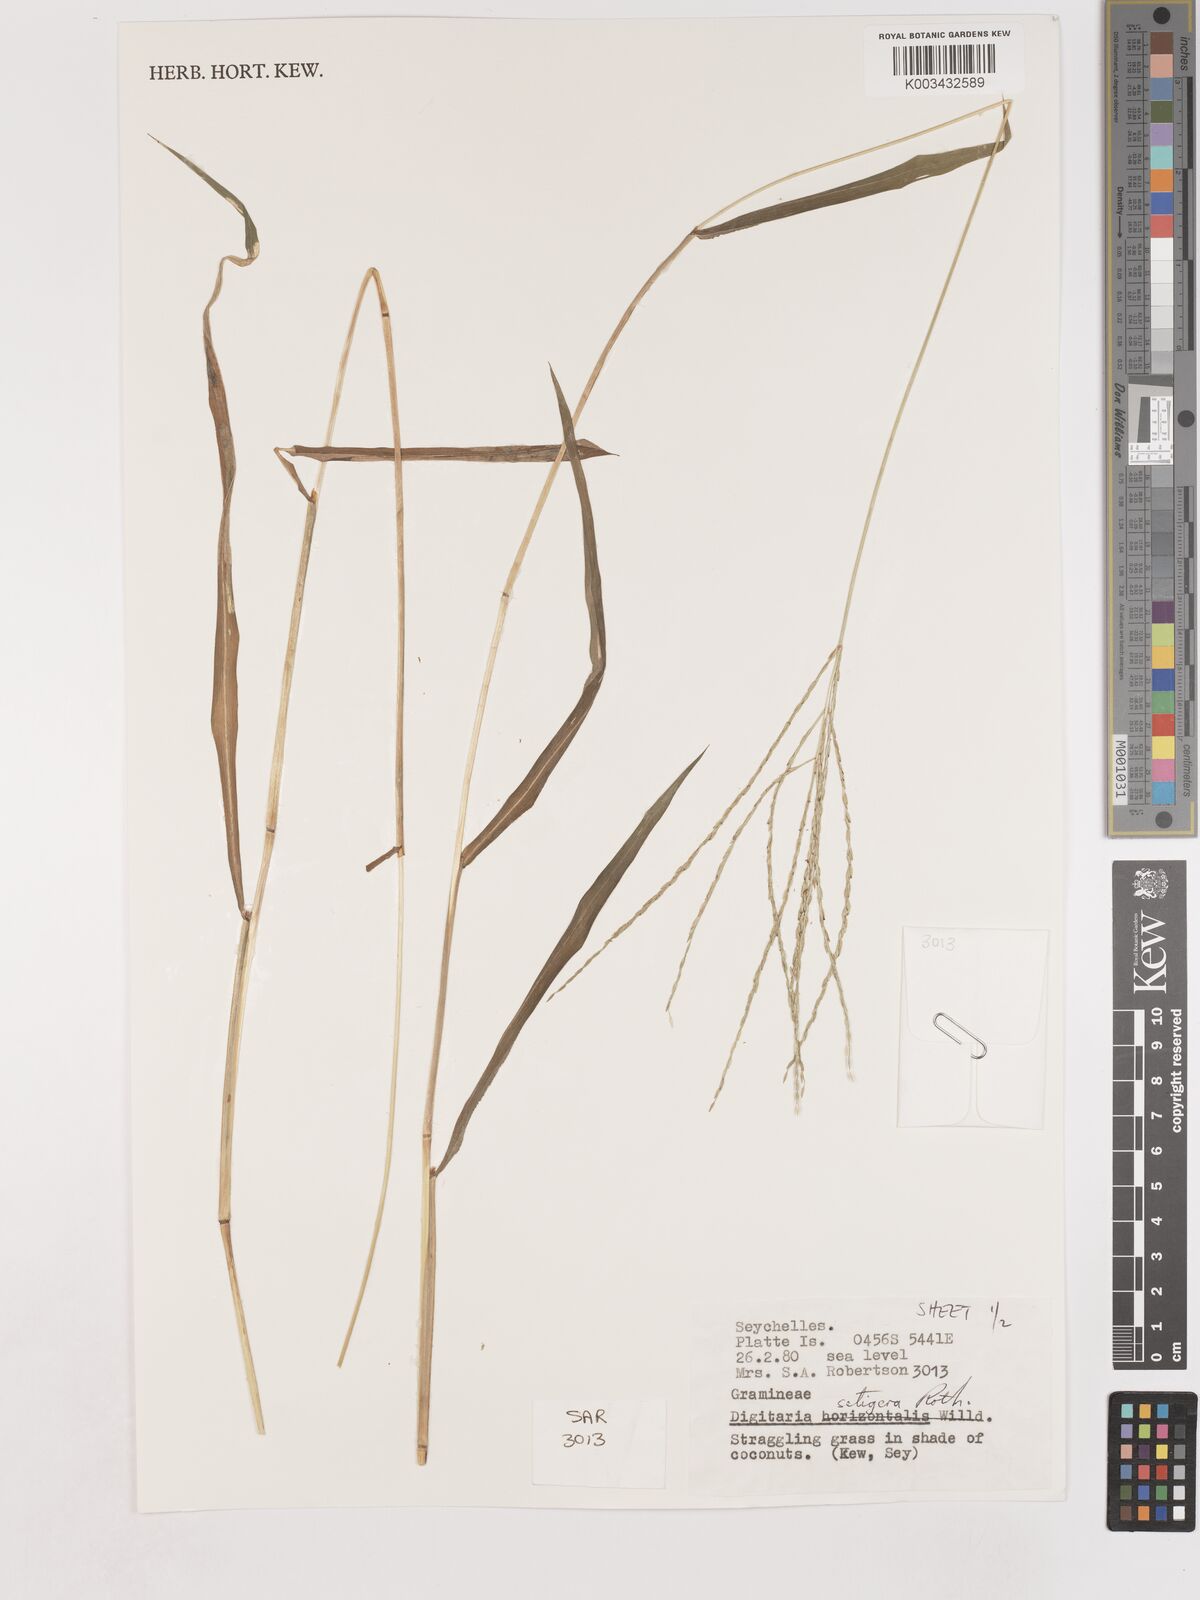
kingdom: Plantae
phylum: Tracheophyta
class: Liliopsida
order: Poales
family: Poaceae
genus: Digitaria
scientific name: Digitaria setigera
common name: East indian crabgrass
